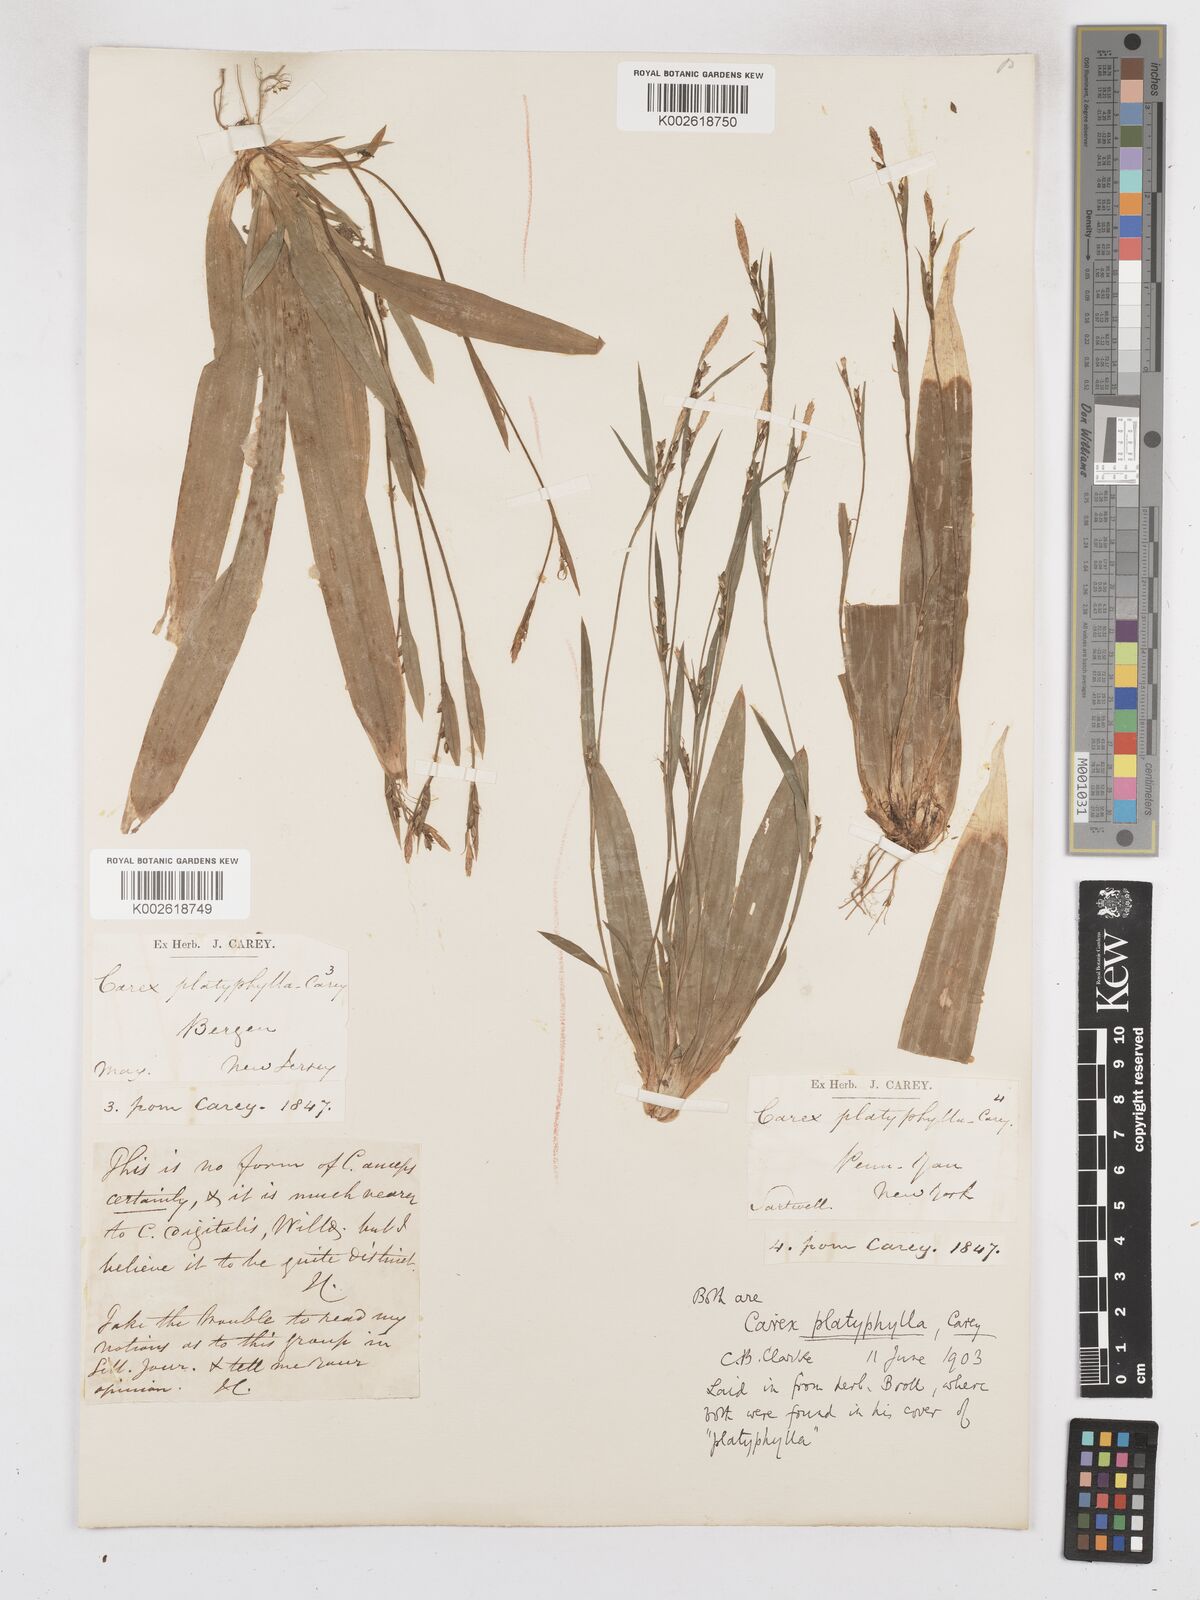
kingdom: Plantae
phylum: Tracheophyta
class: Liliopsida
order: Poales
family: Cyperaceae
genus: Carex
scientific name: Carex platyphylla
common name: Broad-leaved sedge
